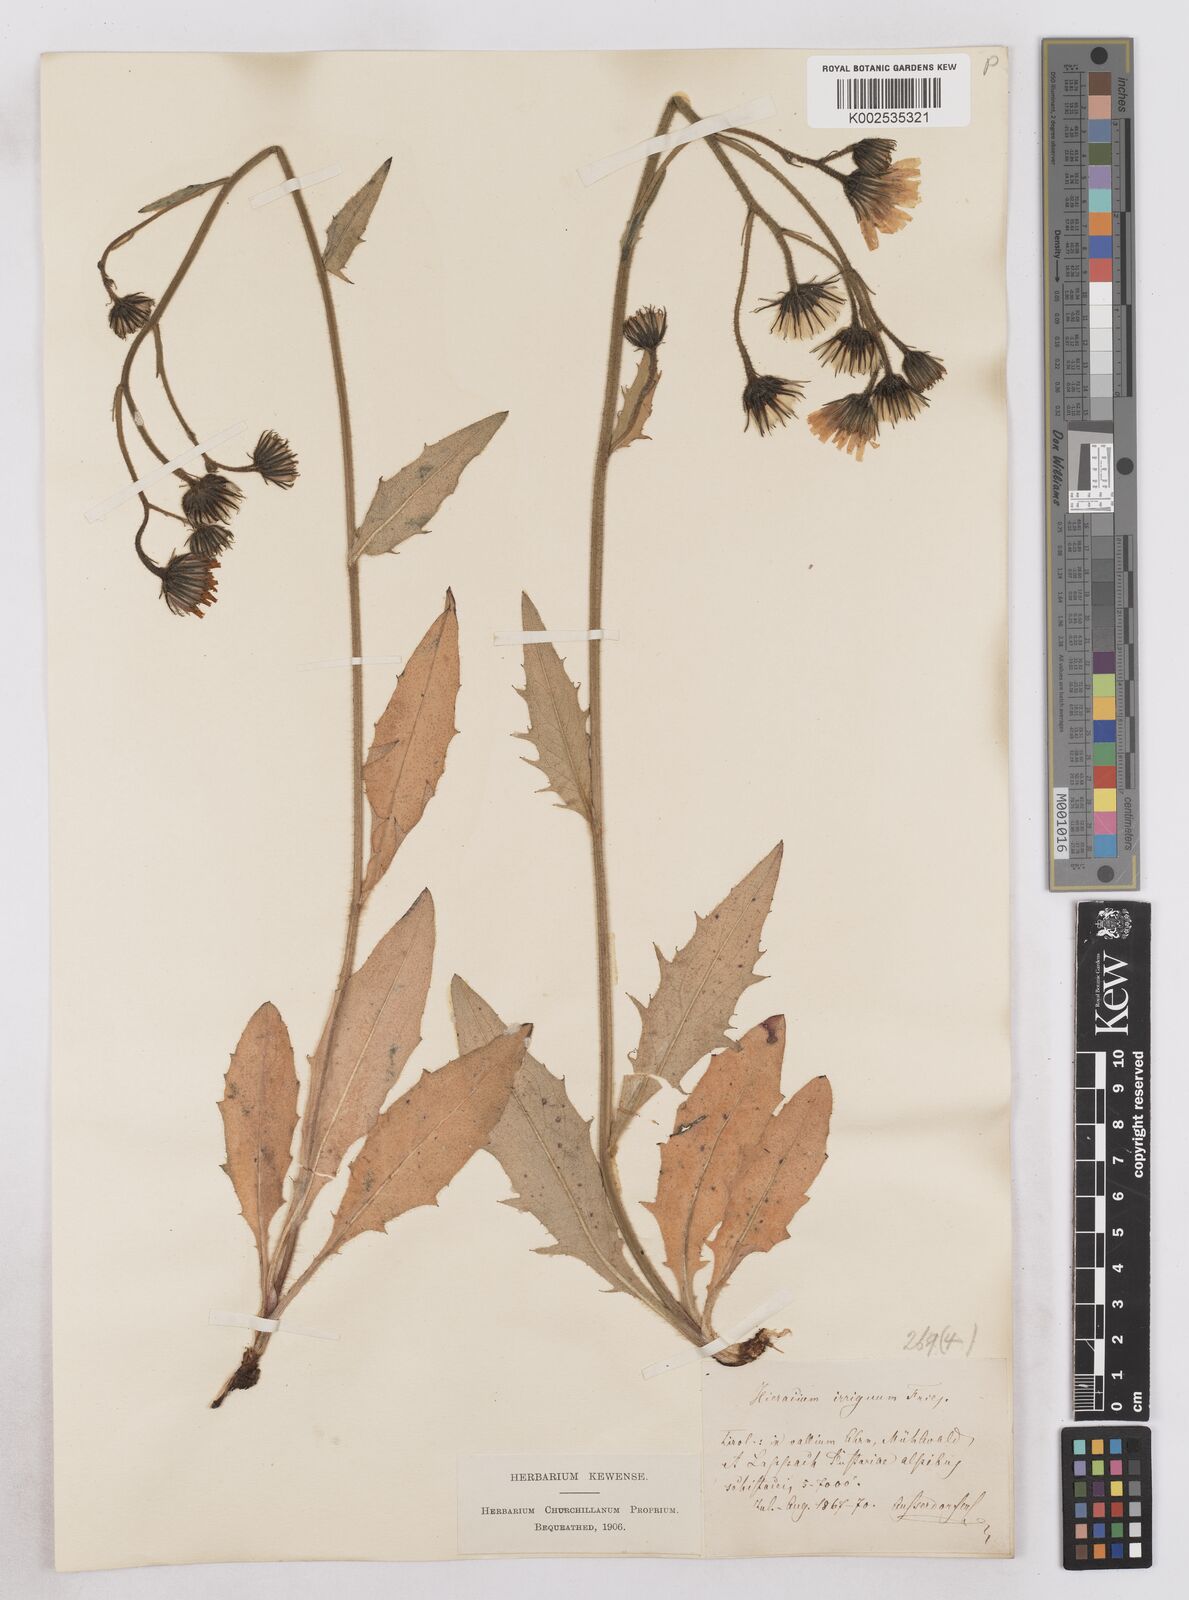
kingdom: Plantae
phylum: Tracheophyta
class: Magnoliopsida
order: Asterales
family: Asteraceae
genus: Hieracium
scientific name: Hieracium simia
